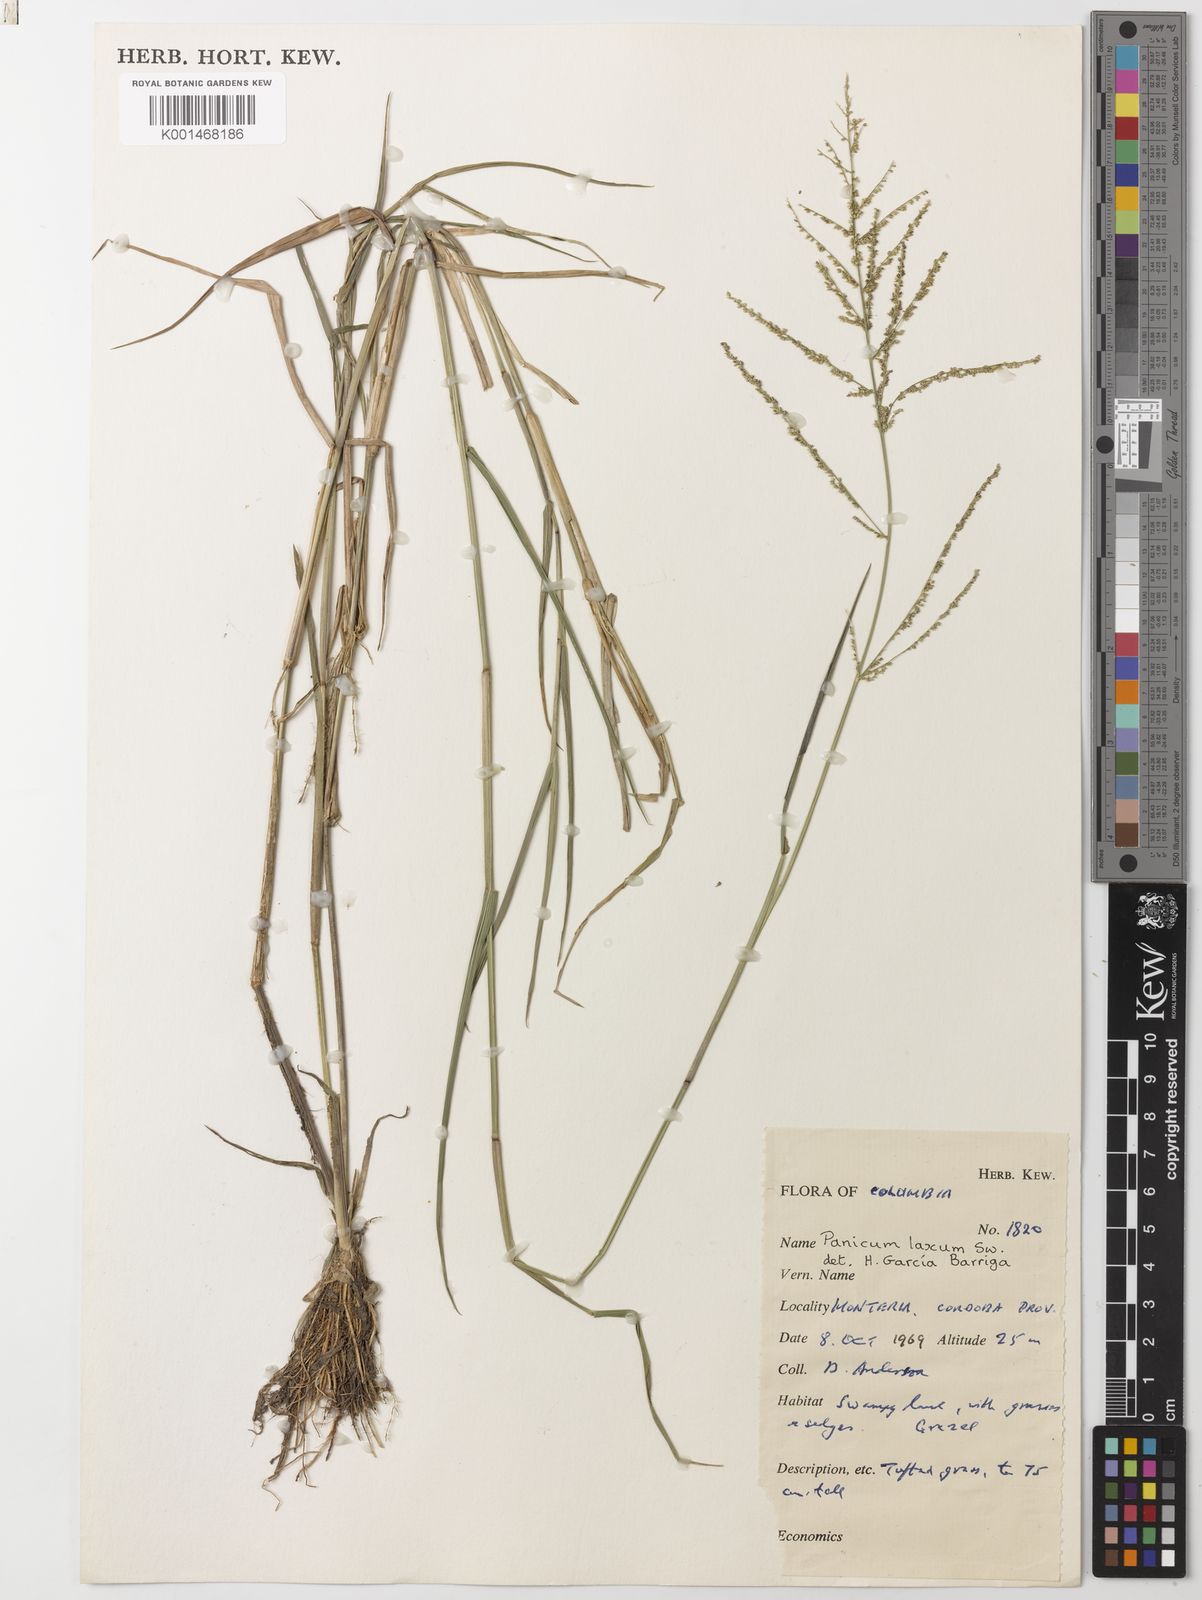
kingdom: Plantae
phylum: Tracheophyta
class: Liliopsida
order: Poales
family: Poaceae
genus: Steinchisma
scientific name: Steinchisma laxum
